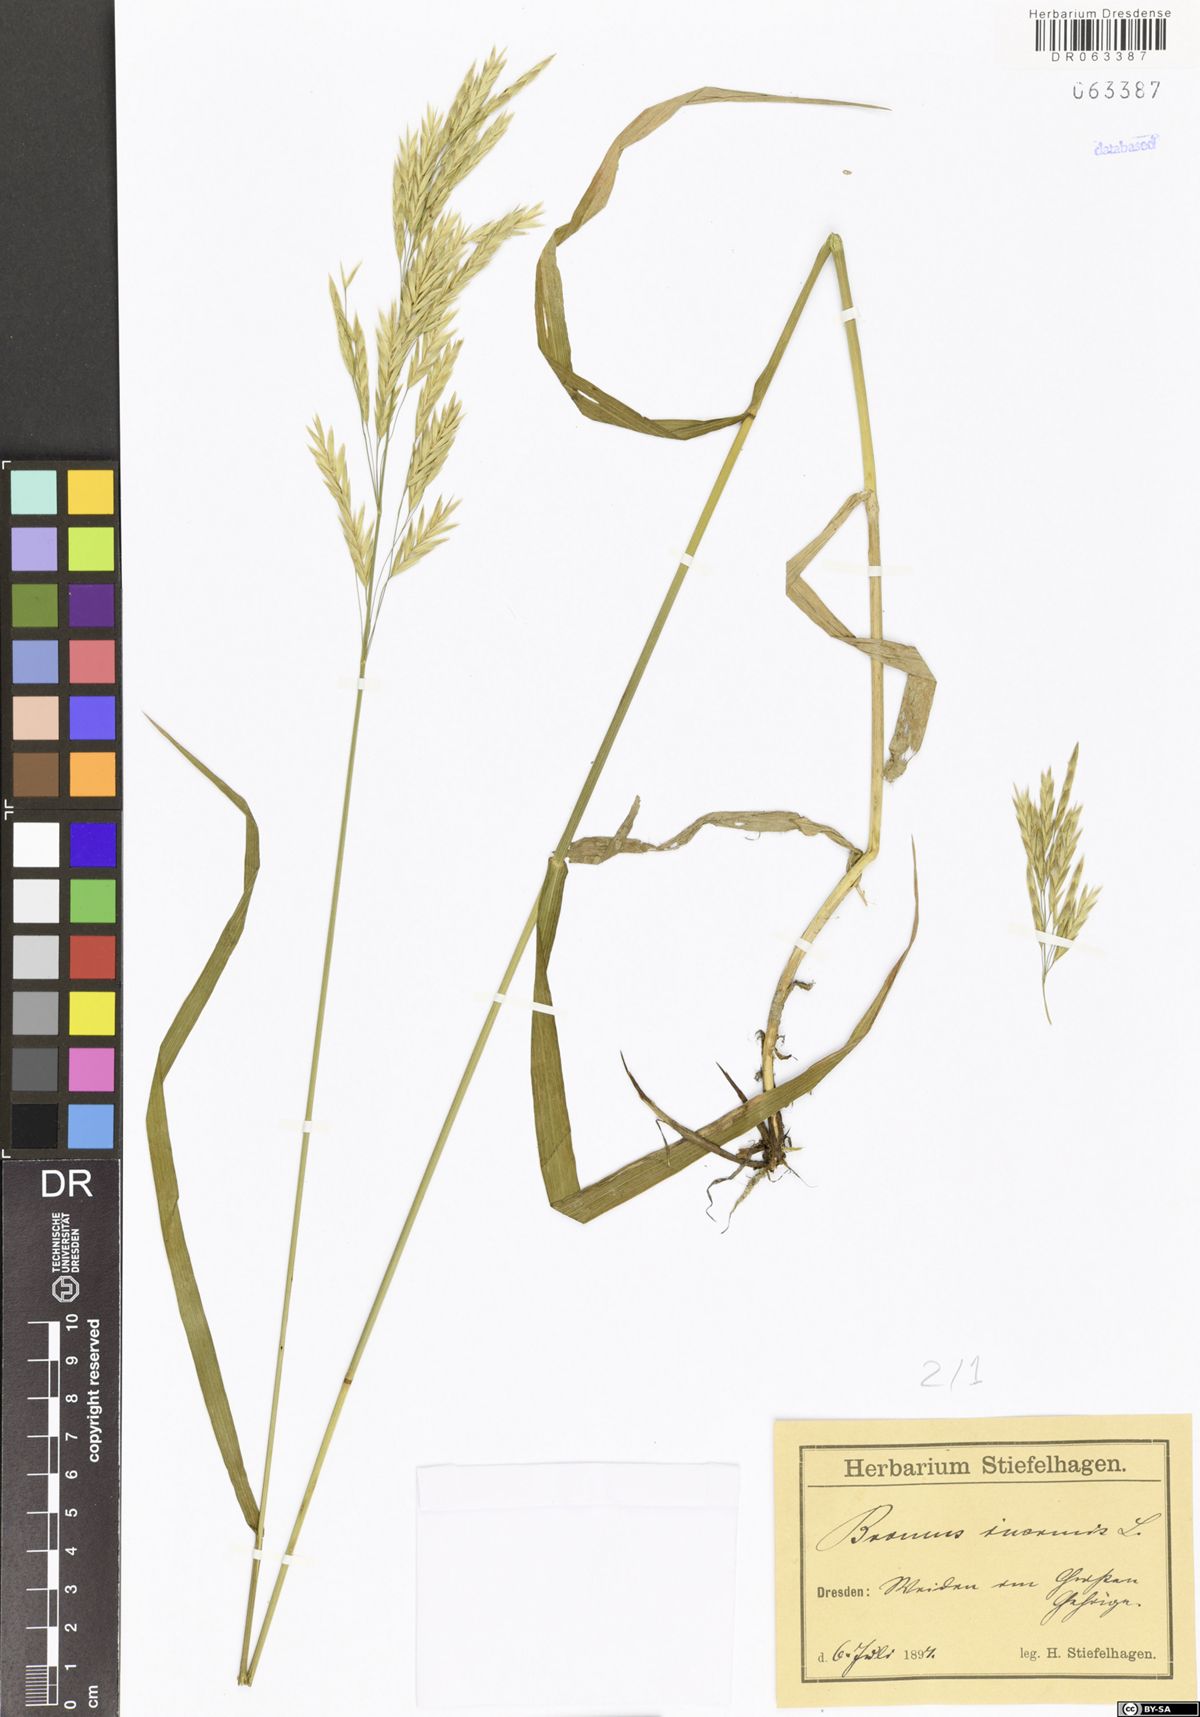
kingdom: Plantae
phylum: Tracheophyta
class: Liliopsida
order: Poales
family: Poaceae
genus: Bromus
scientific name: Bromus inermis
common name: Smooth brome
